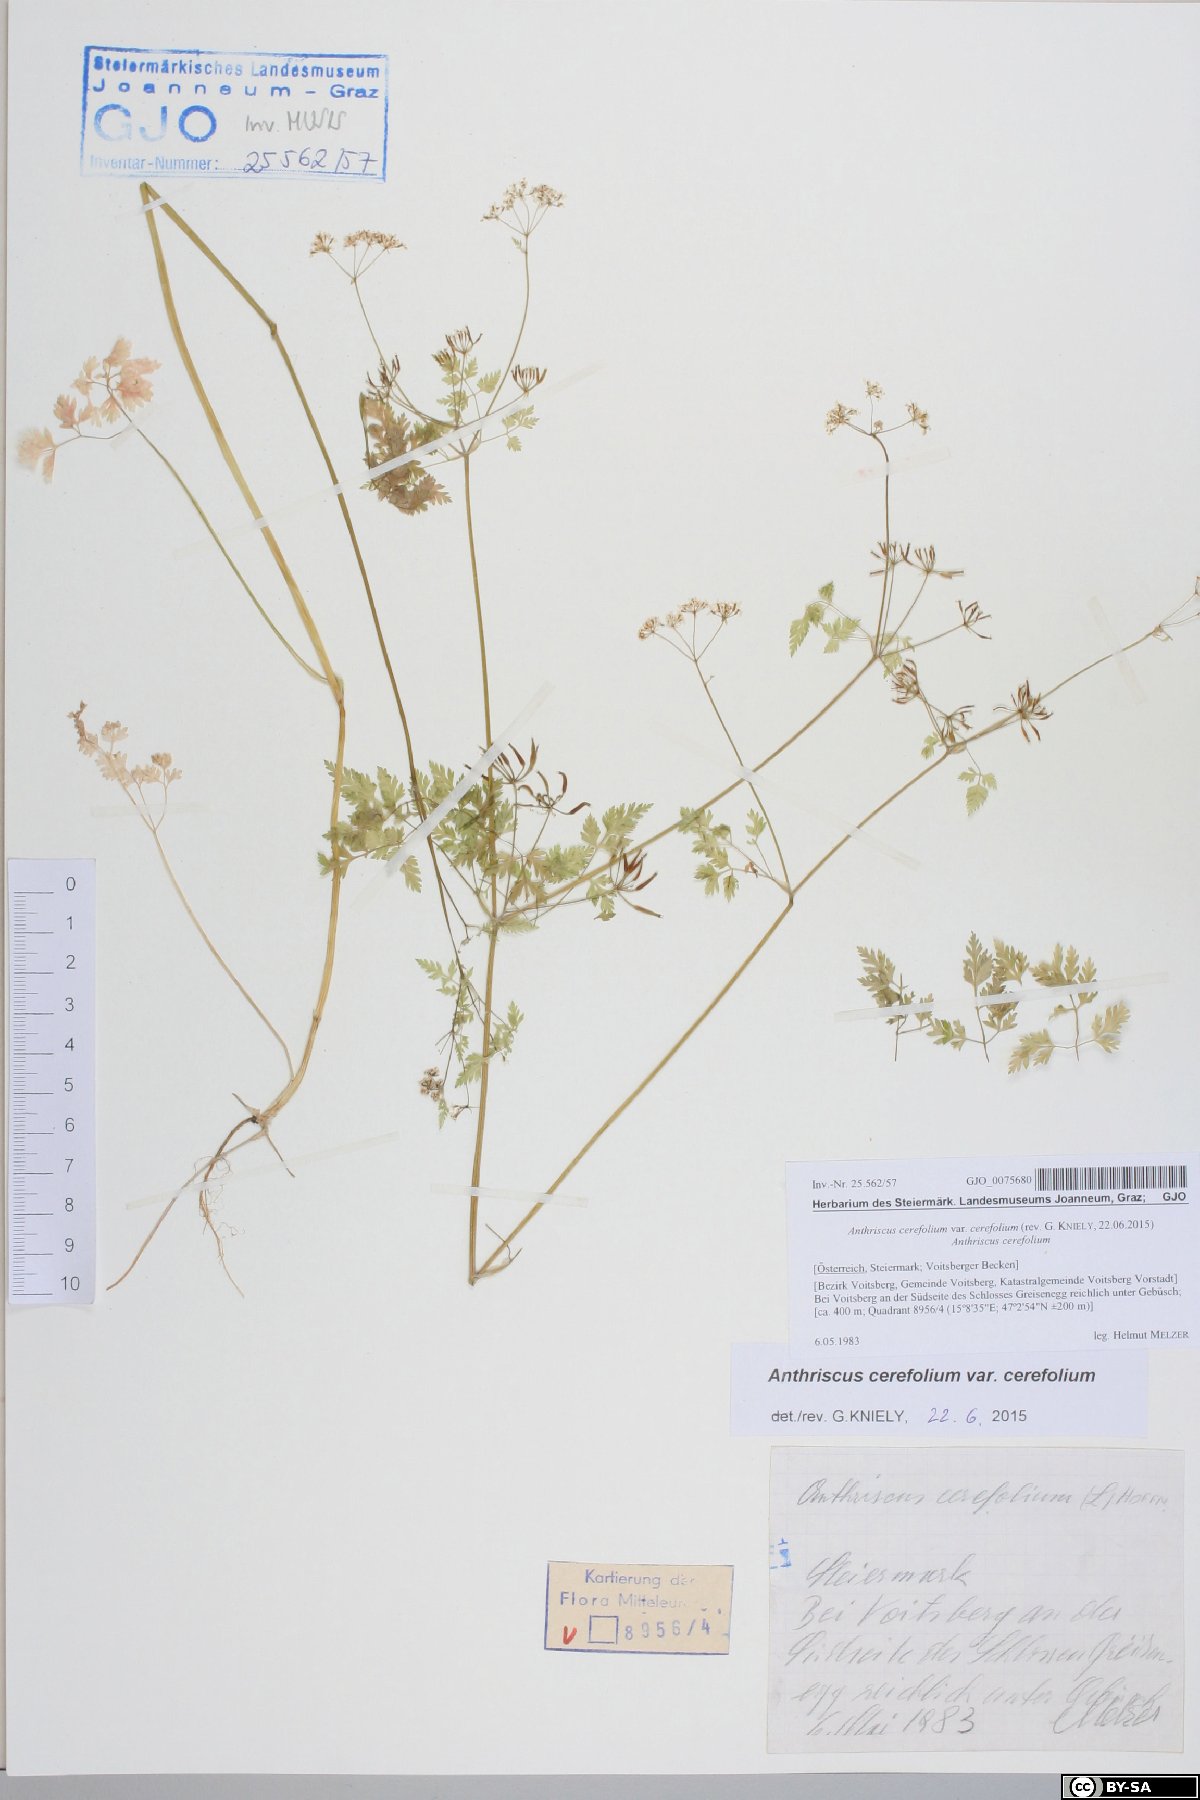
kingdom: Plantae
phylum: Tracheophyta
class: Magnoliopsida
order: Apiales
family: Apiaceae
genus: Anthriscus
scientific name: Anthriscus cerefolium
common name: Garden chervil
